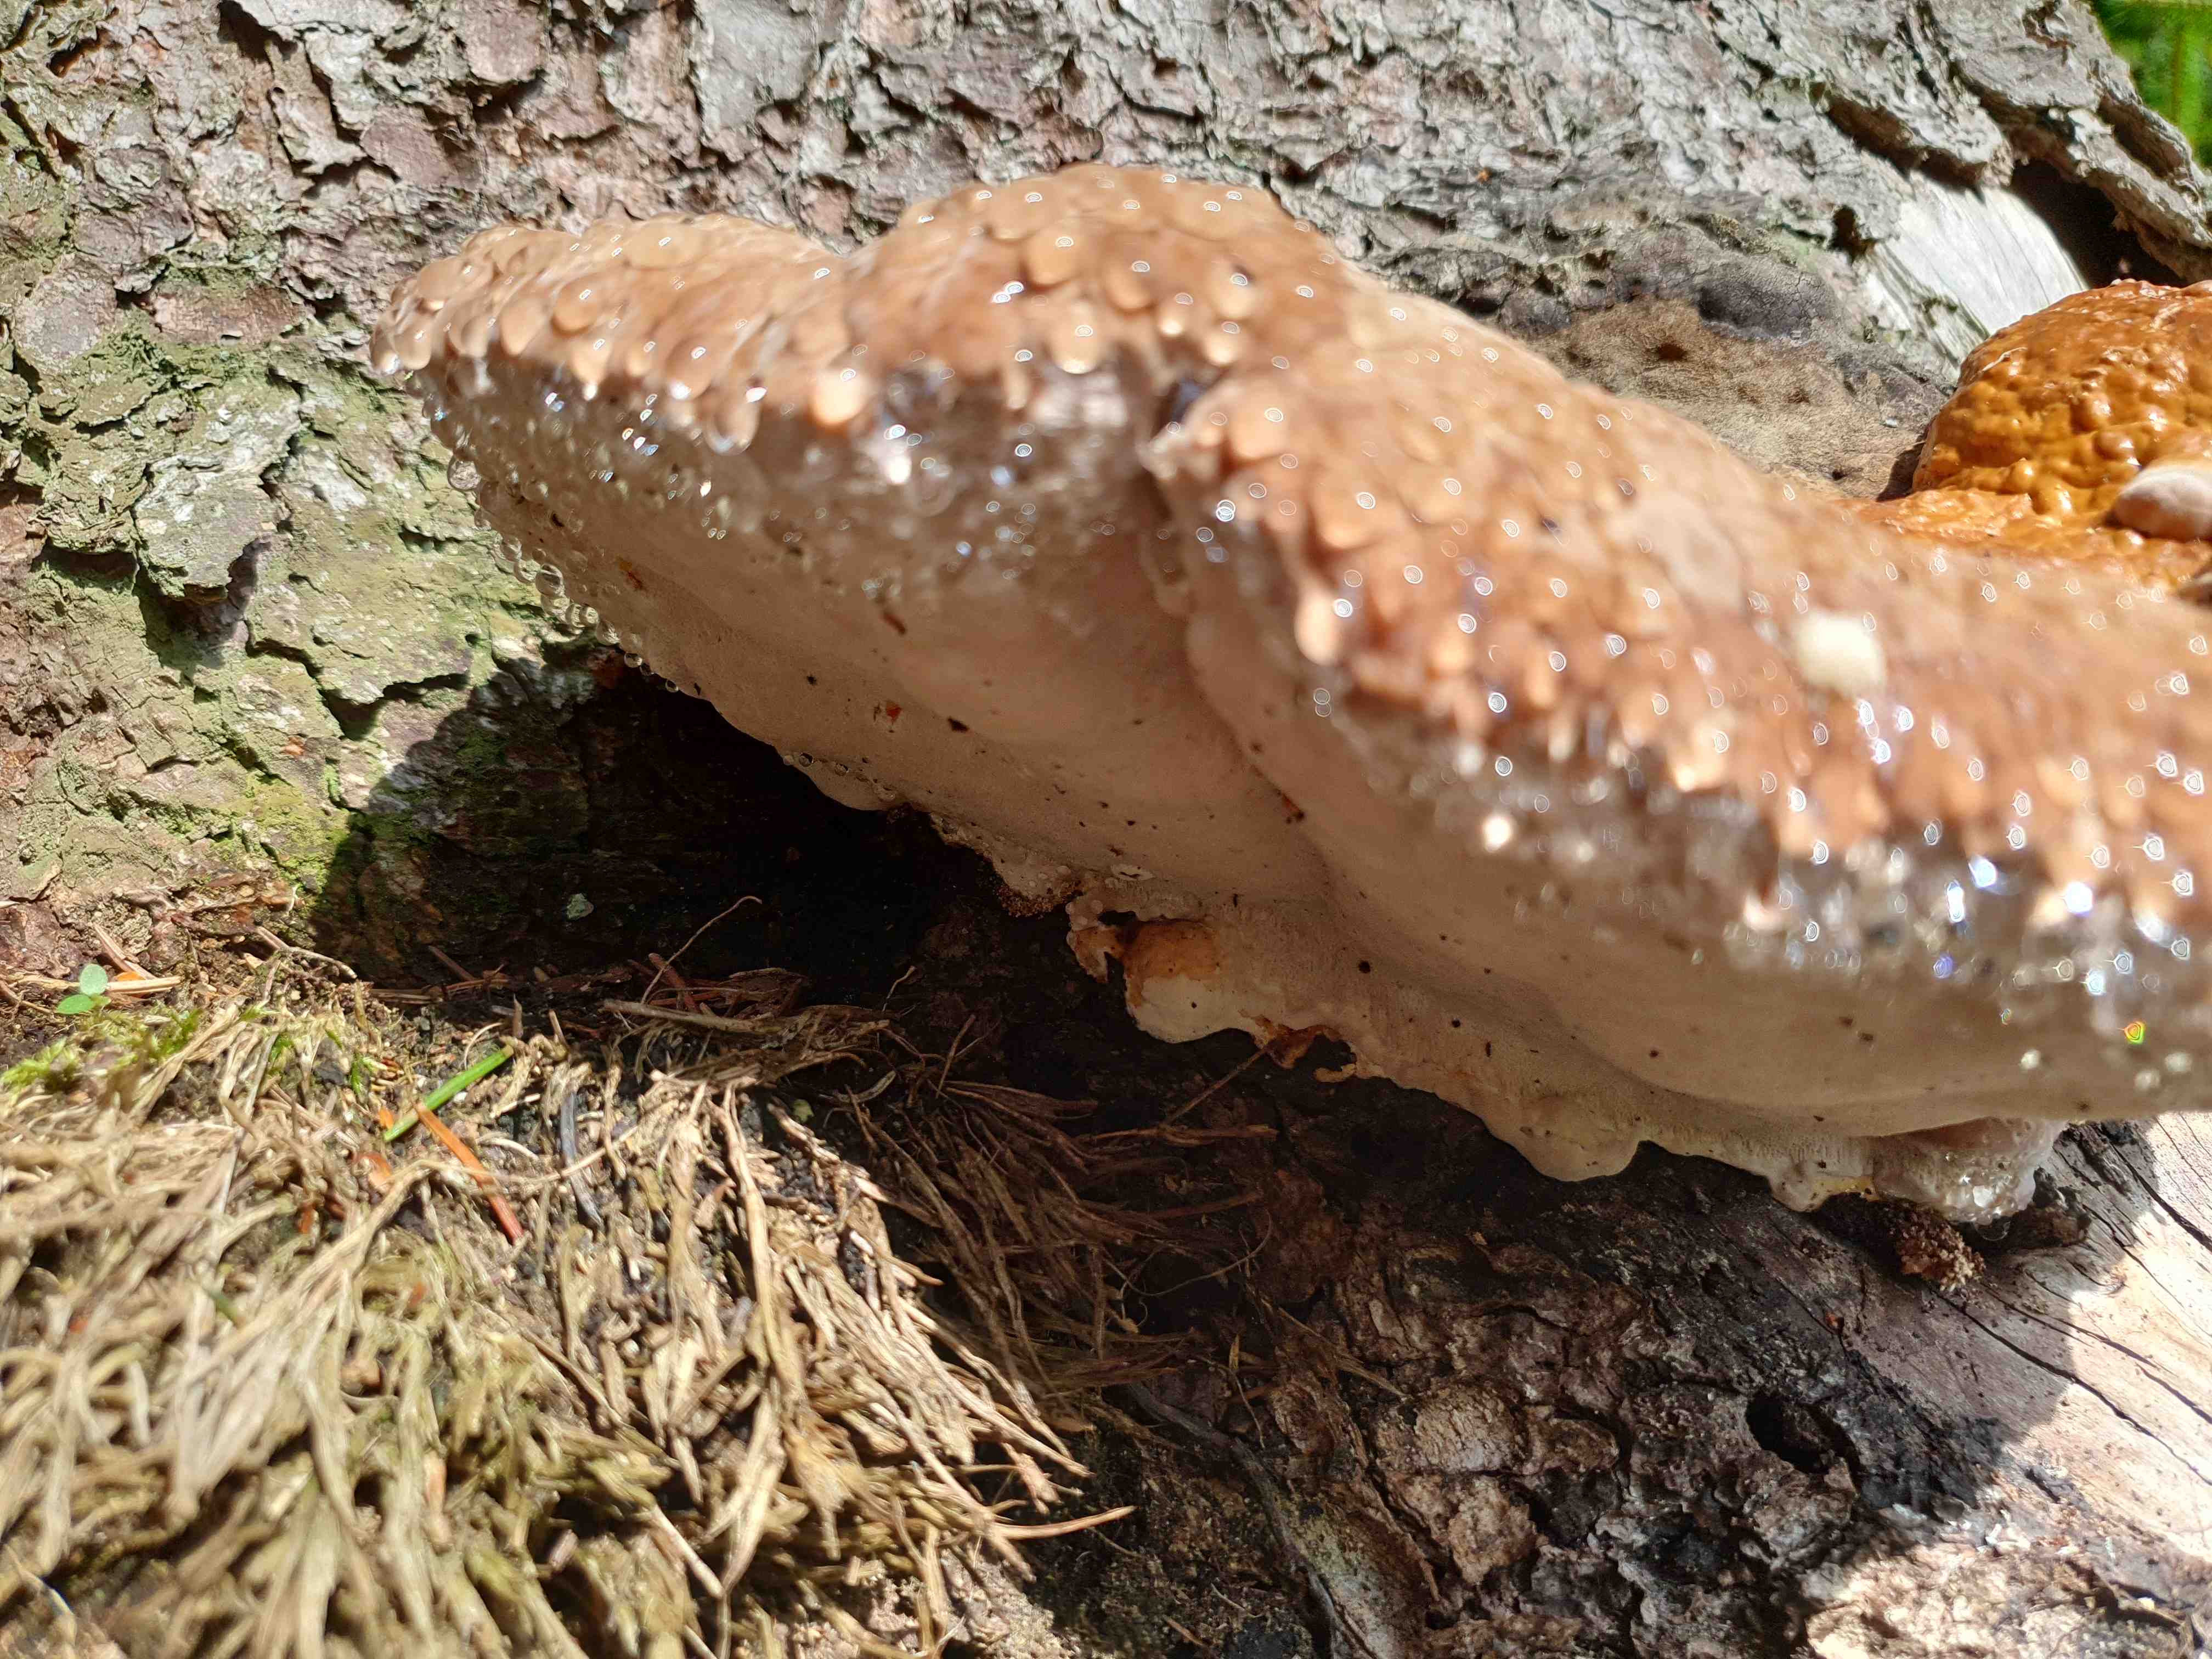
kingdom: Fungi
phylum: Basidiomycota
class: Agaricomycetes
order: Polyporales
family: Fomitopsidaceae
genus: Fomitopsis
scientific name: Fomitopsis pinicola
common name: randbæltet hovporesvamp
